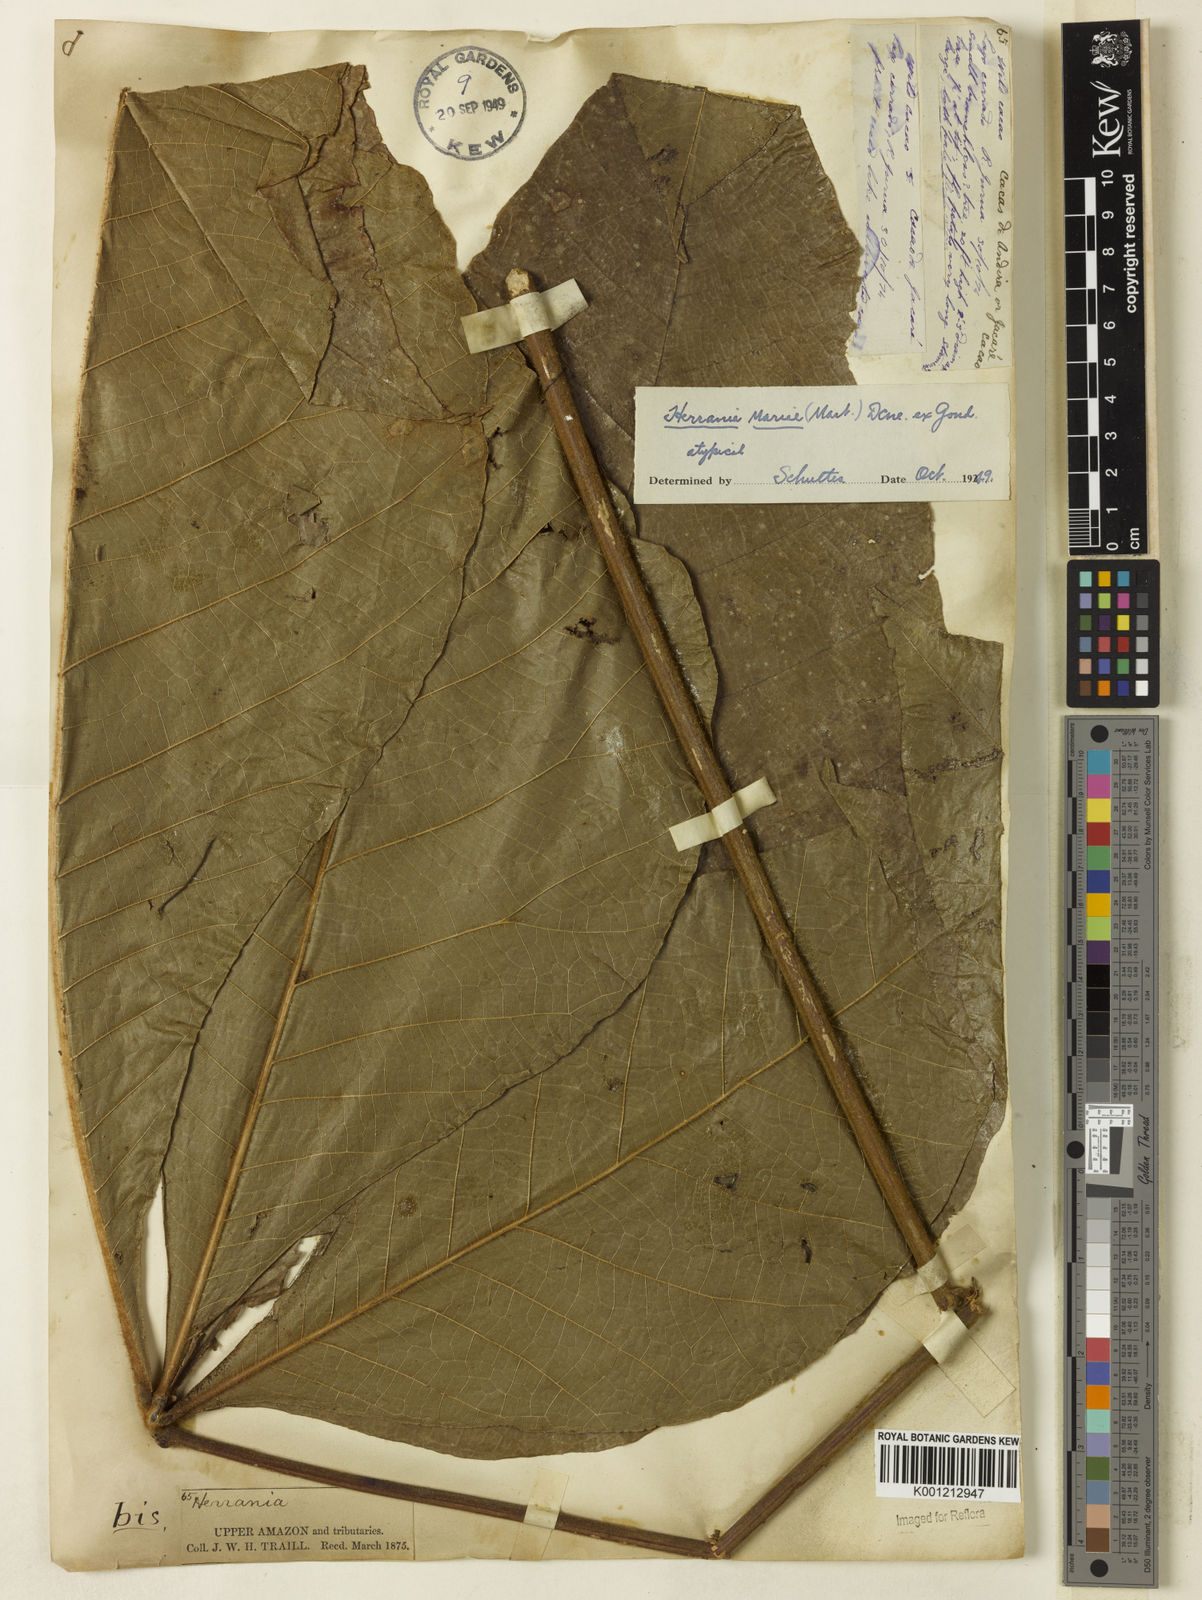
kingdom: Plantae
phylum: Tracheophyta
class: Magnoliopsida
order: Malvales
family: Malvaceae
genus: Herrania
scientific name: Herrania nitida
